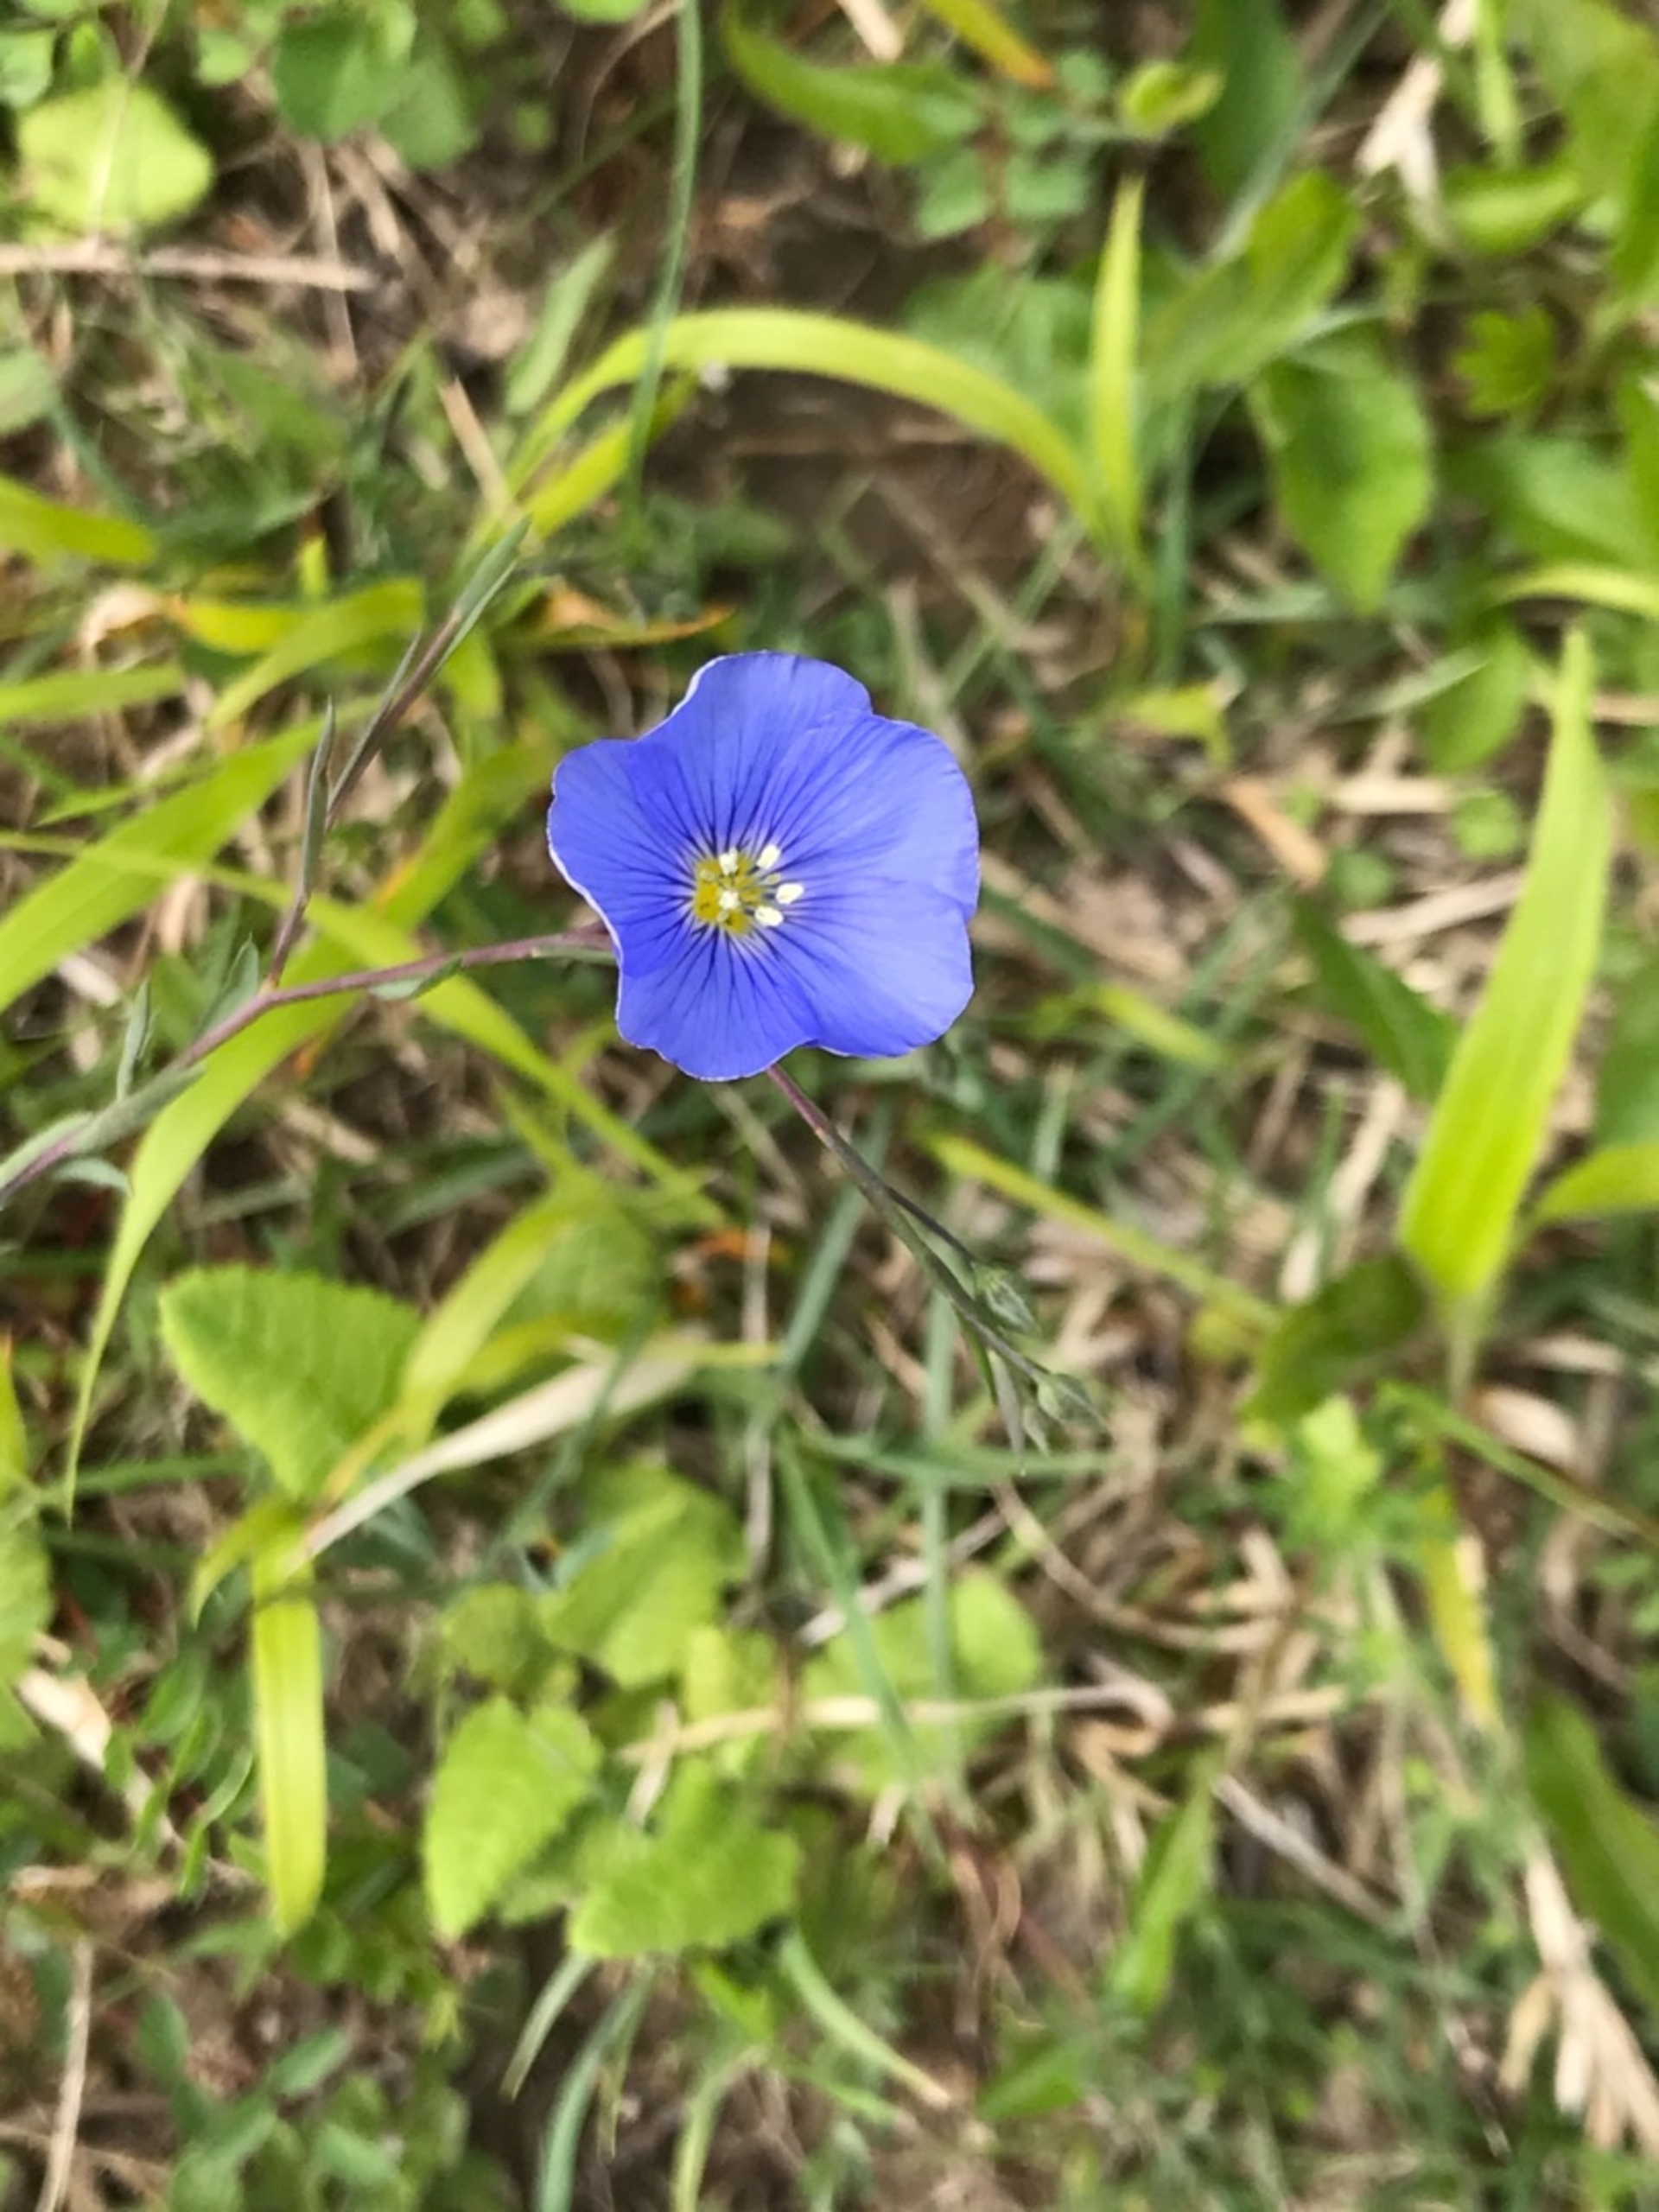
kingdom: Plantae
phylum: Tracheophyta
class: Magnoliopsida
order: Malpighiales
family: Linaceae
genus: Linum
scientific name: Linum austriacum
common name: Østrigsk hør
